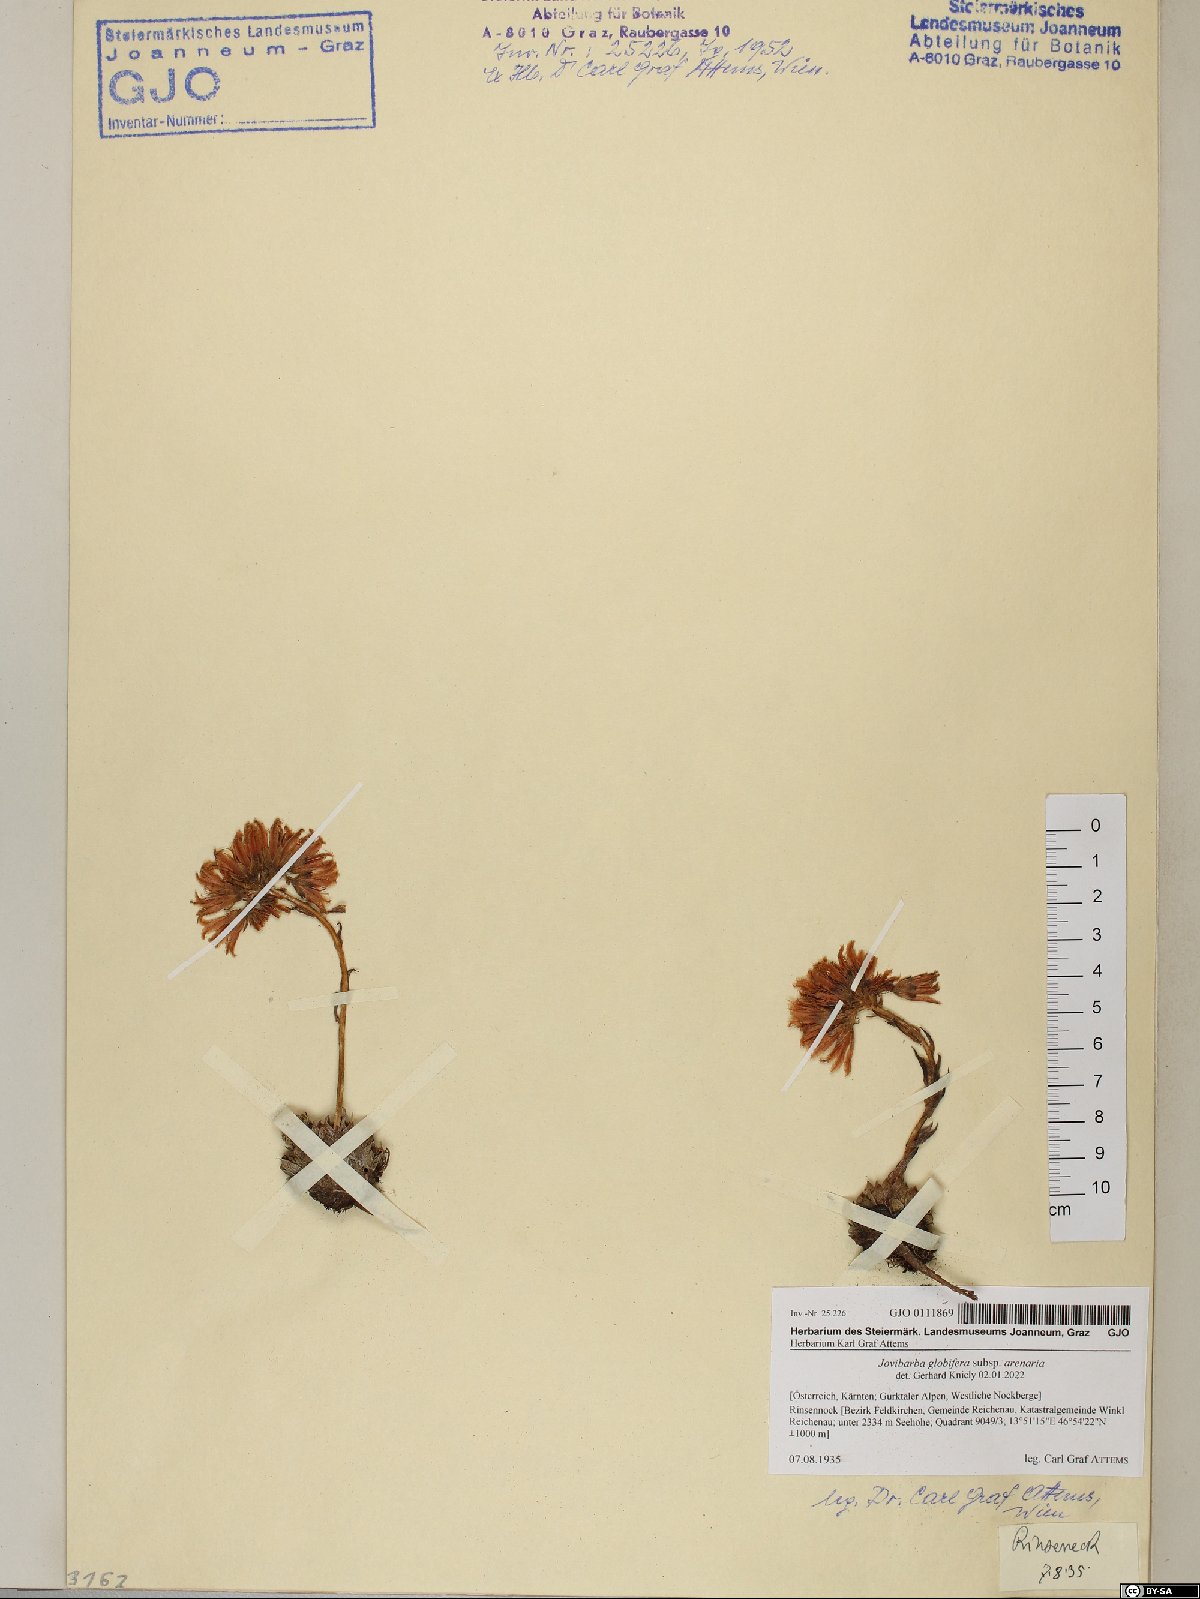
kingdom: Plantae
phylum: Tracheophyta
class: Magnoliopsida
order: Saxifragales
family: Crassulaceae
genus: Sempervivum
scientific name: Sempervivum globiferum
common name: Rolling hen-and-chicks
